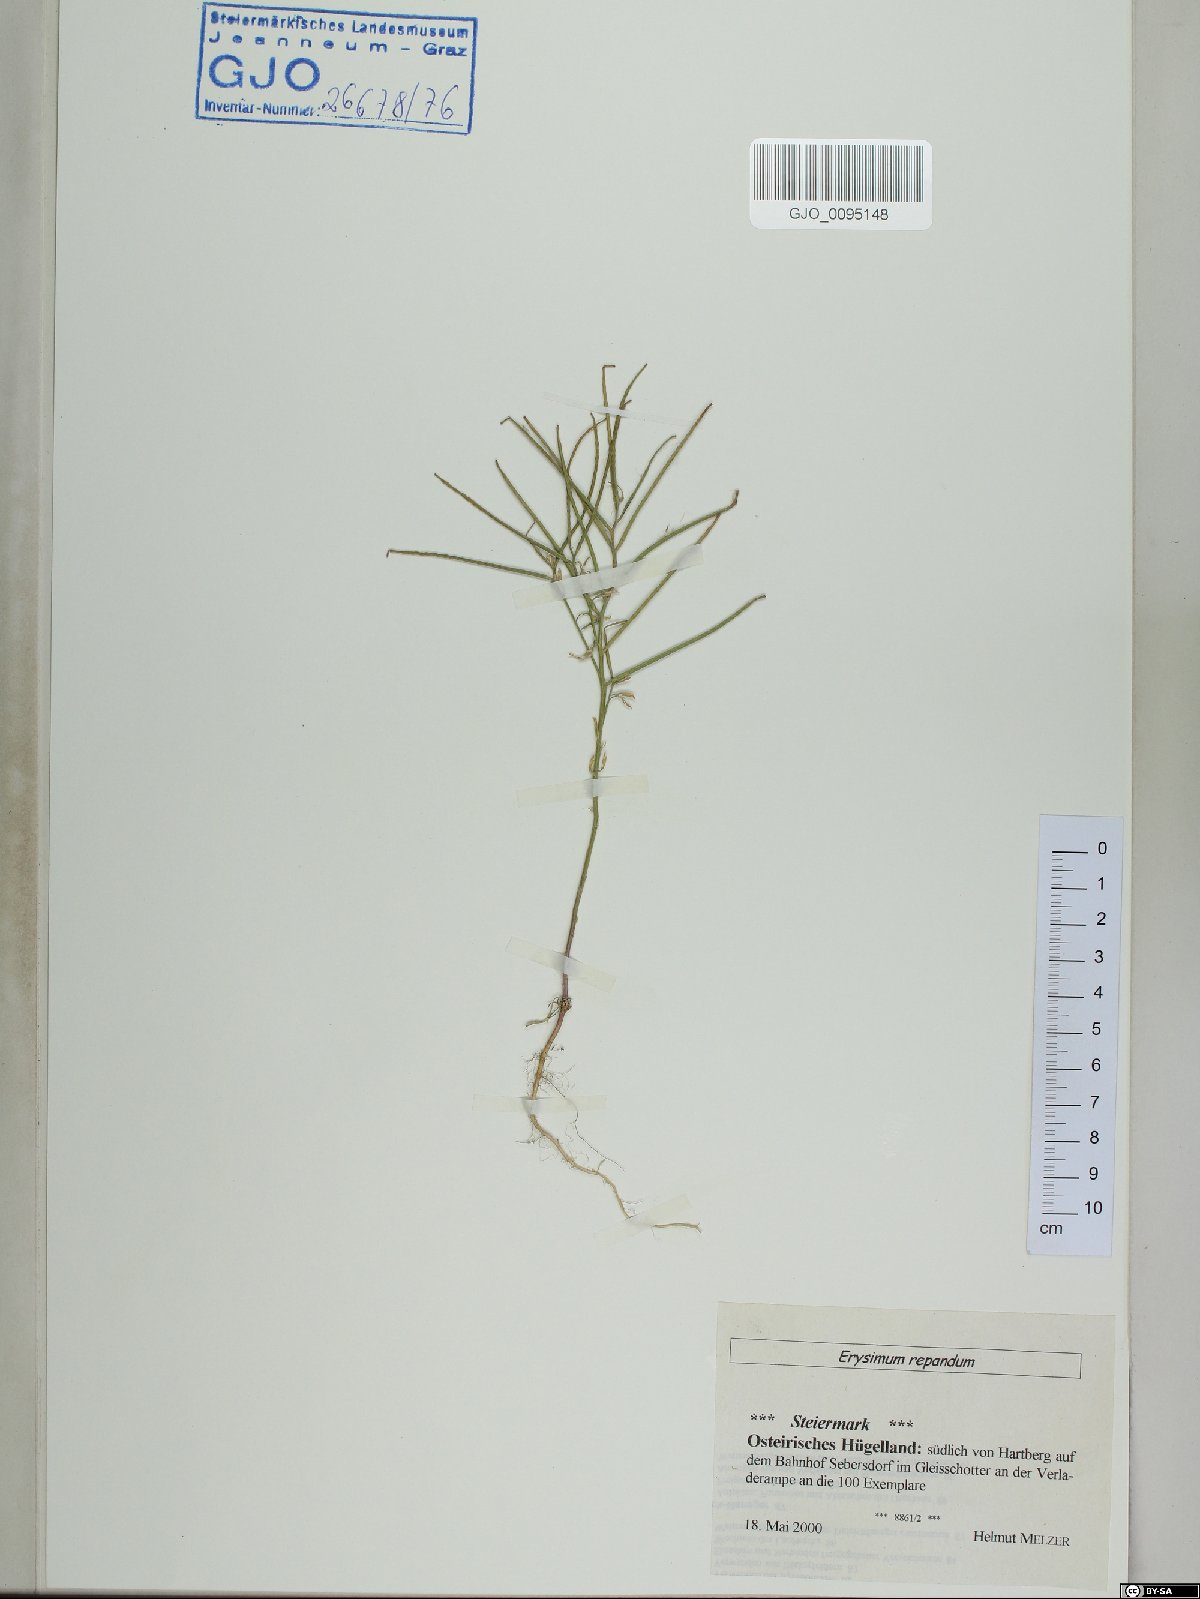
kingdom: Plantae
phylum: Tracheophyta
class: Magnoliopsida
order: Brassicales
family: Brassicaceae
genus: Erysimum
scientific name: Erysimum repandum
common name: Spreading wallflower
